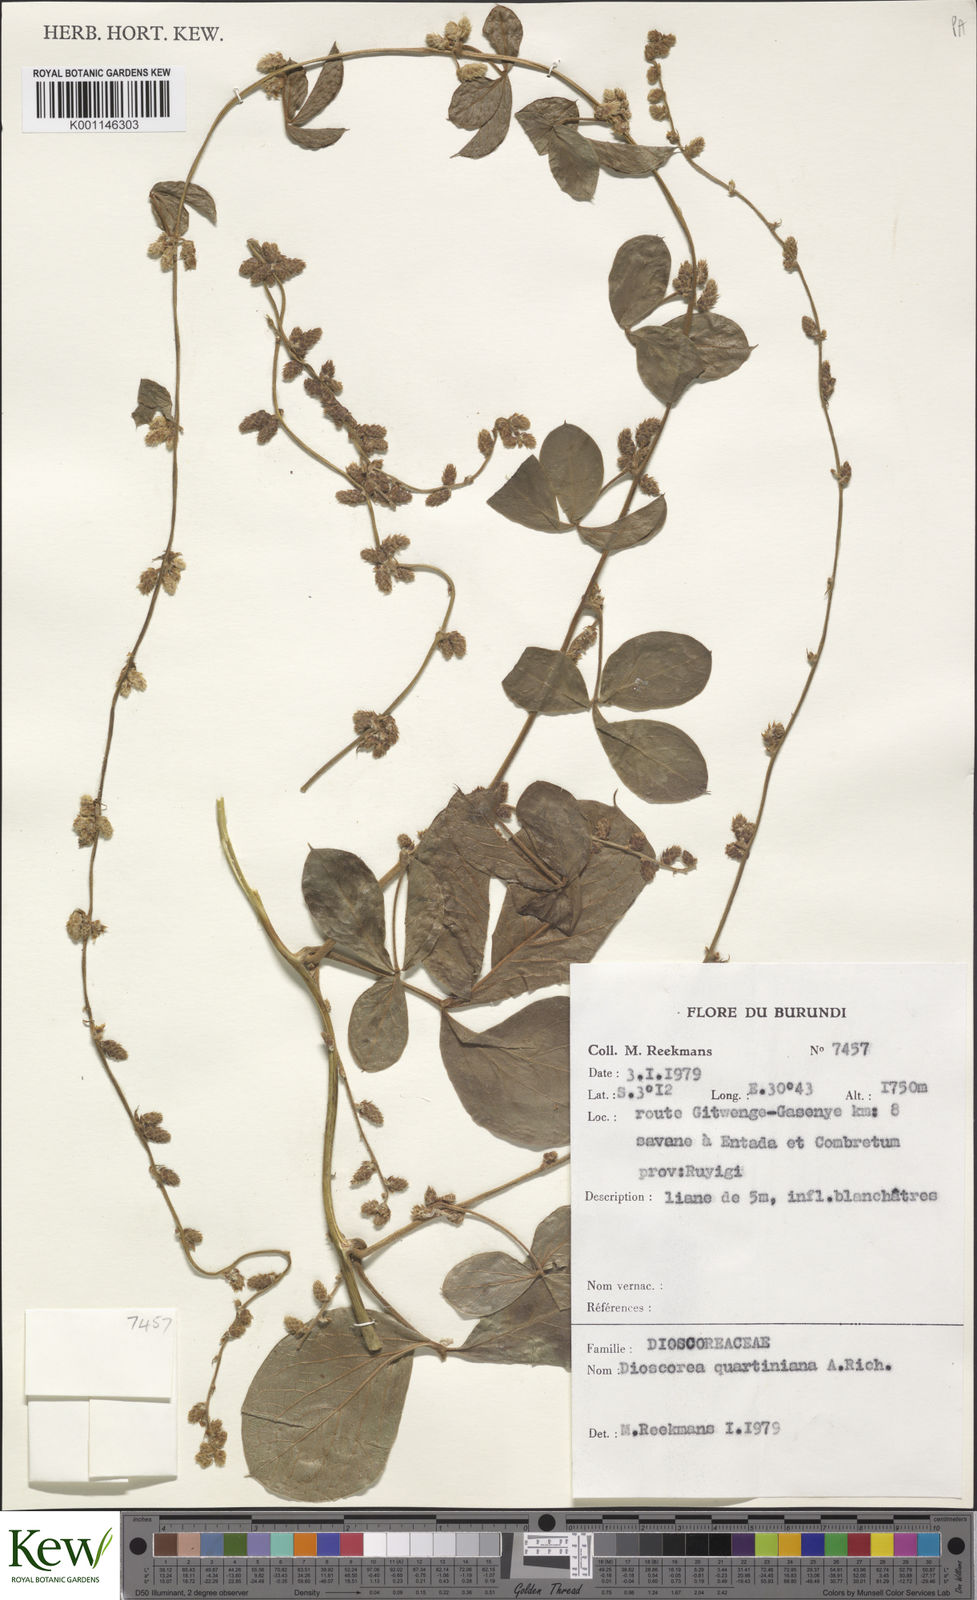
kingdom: Plantae
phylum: Tracheophyta
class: Liliopsida
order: Dioscoreales
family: Dioscoreaceae
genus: Dioscorea
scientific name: Dioscorea quartiniana
